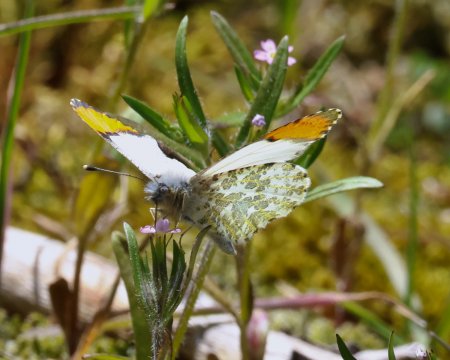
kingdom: Animalia
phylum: Arthropoda
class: Insecta
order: Lepidoptera
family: Pieridae
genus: Anthocharis
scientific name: Anthocharis julia
